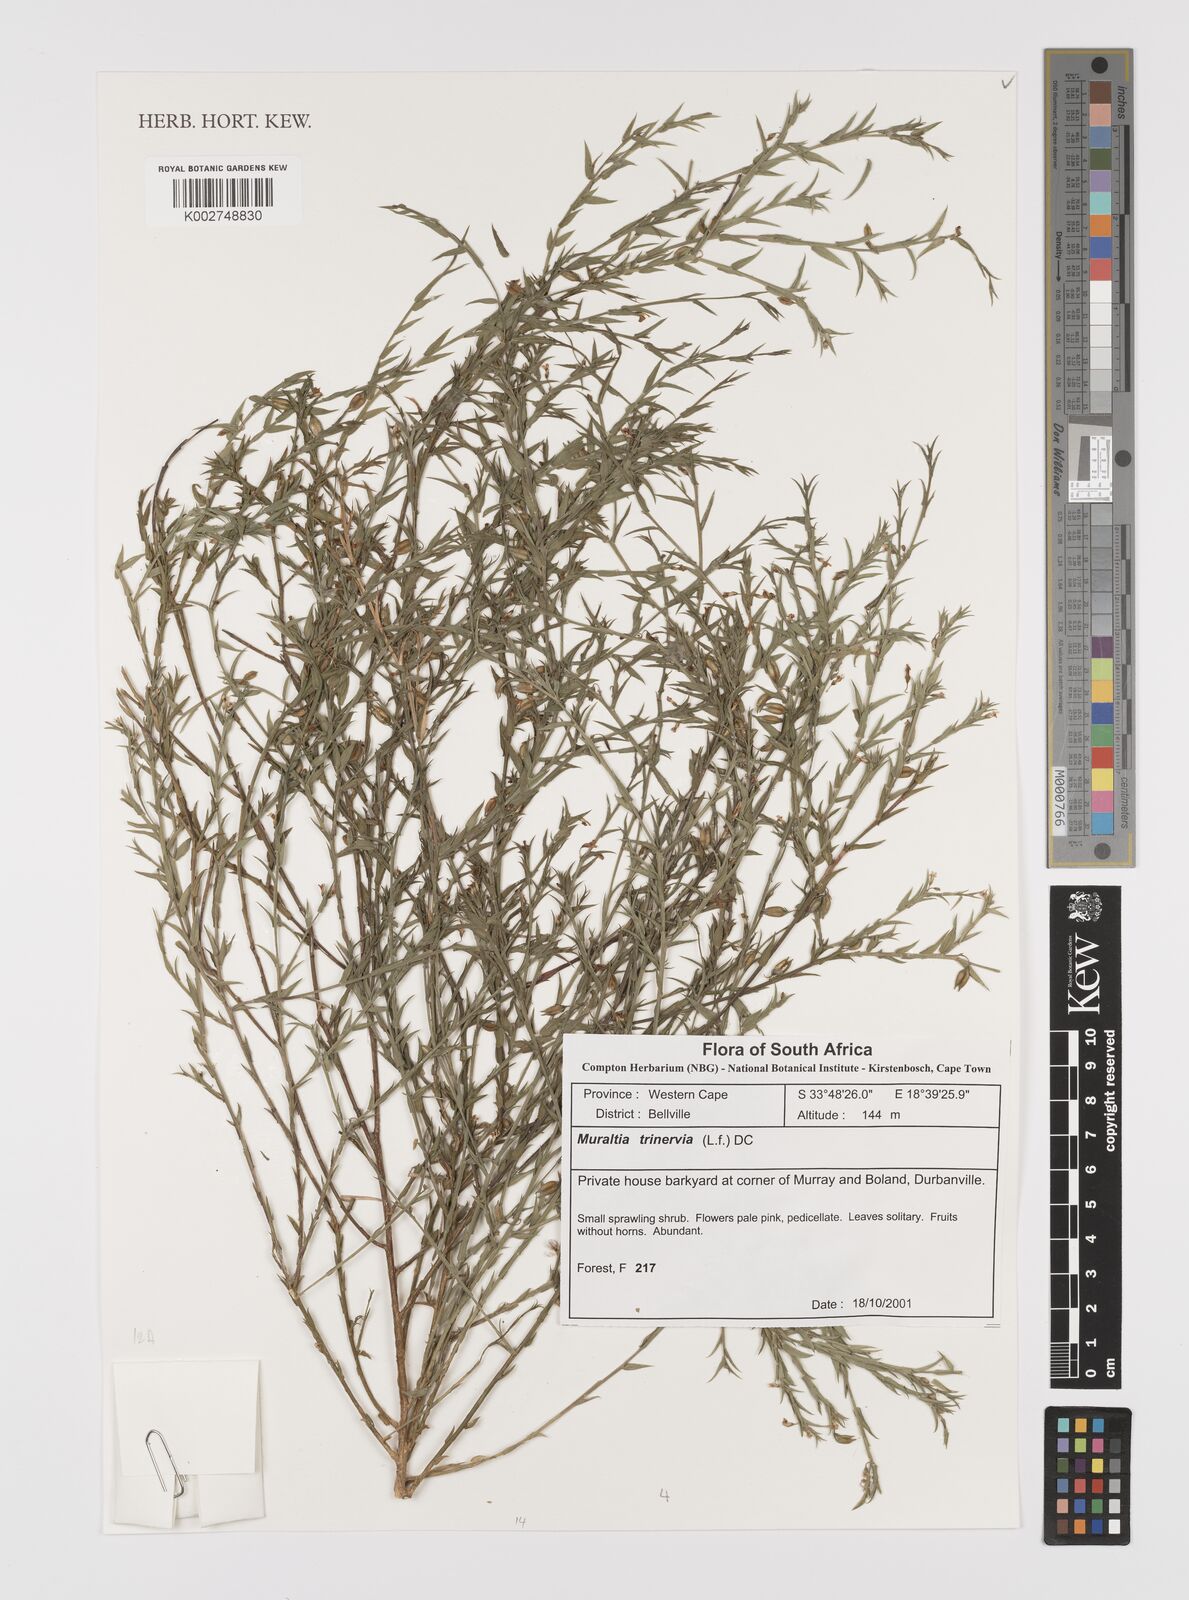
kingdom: Plantae
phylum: Tracheophyta
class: Magnoliopsida
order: Fabales
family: Polygalaceae
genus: Muraltia
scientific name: Muraltia trinervia
